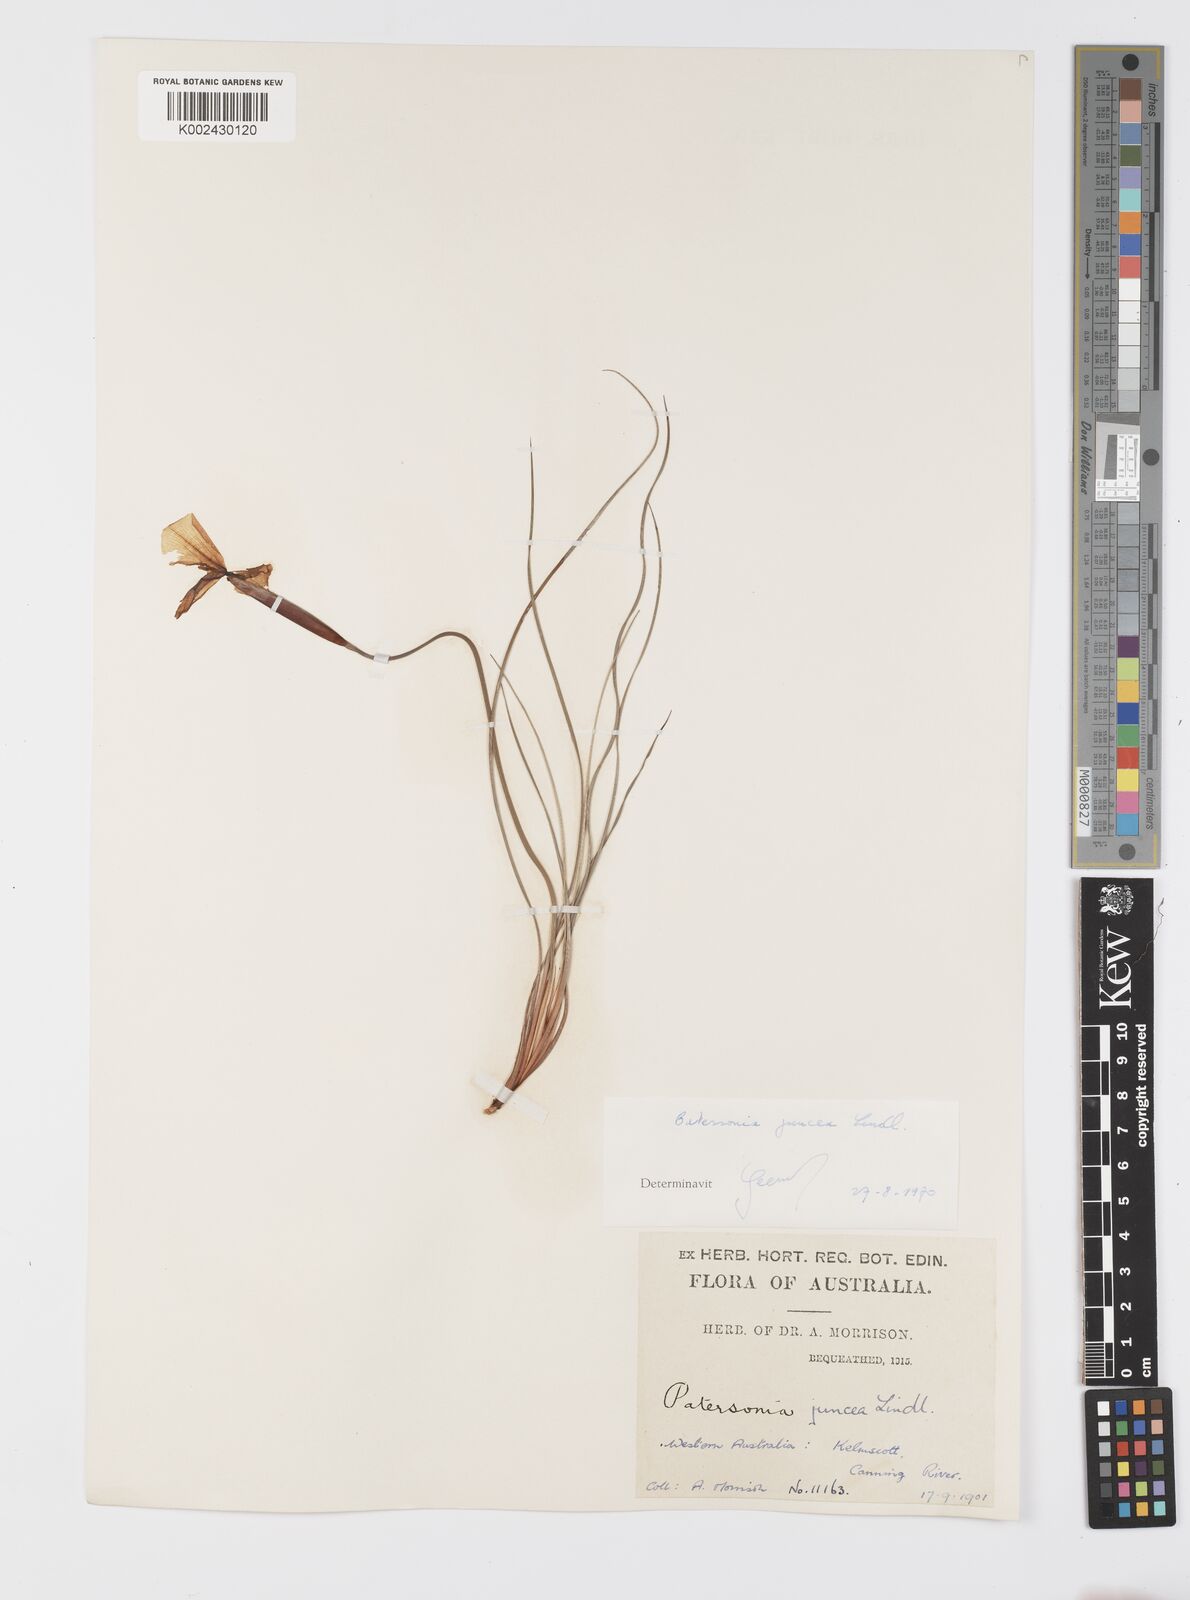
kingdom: Plantae
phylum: Tracheophyta
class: Liliopsida
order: Asparagales
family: Iridaceae
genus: Patersonia
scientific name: Patersonia juncea
